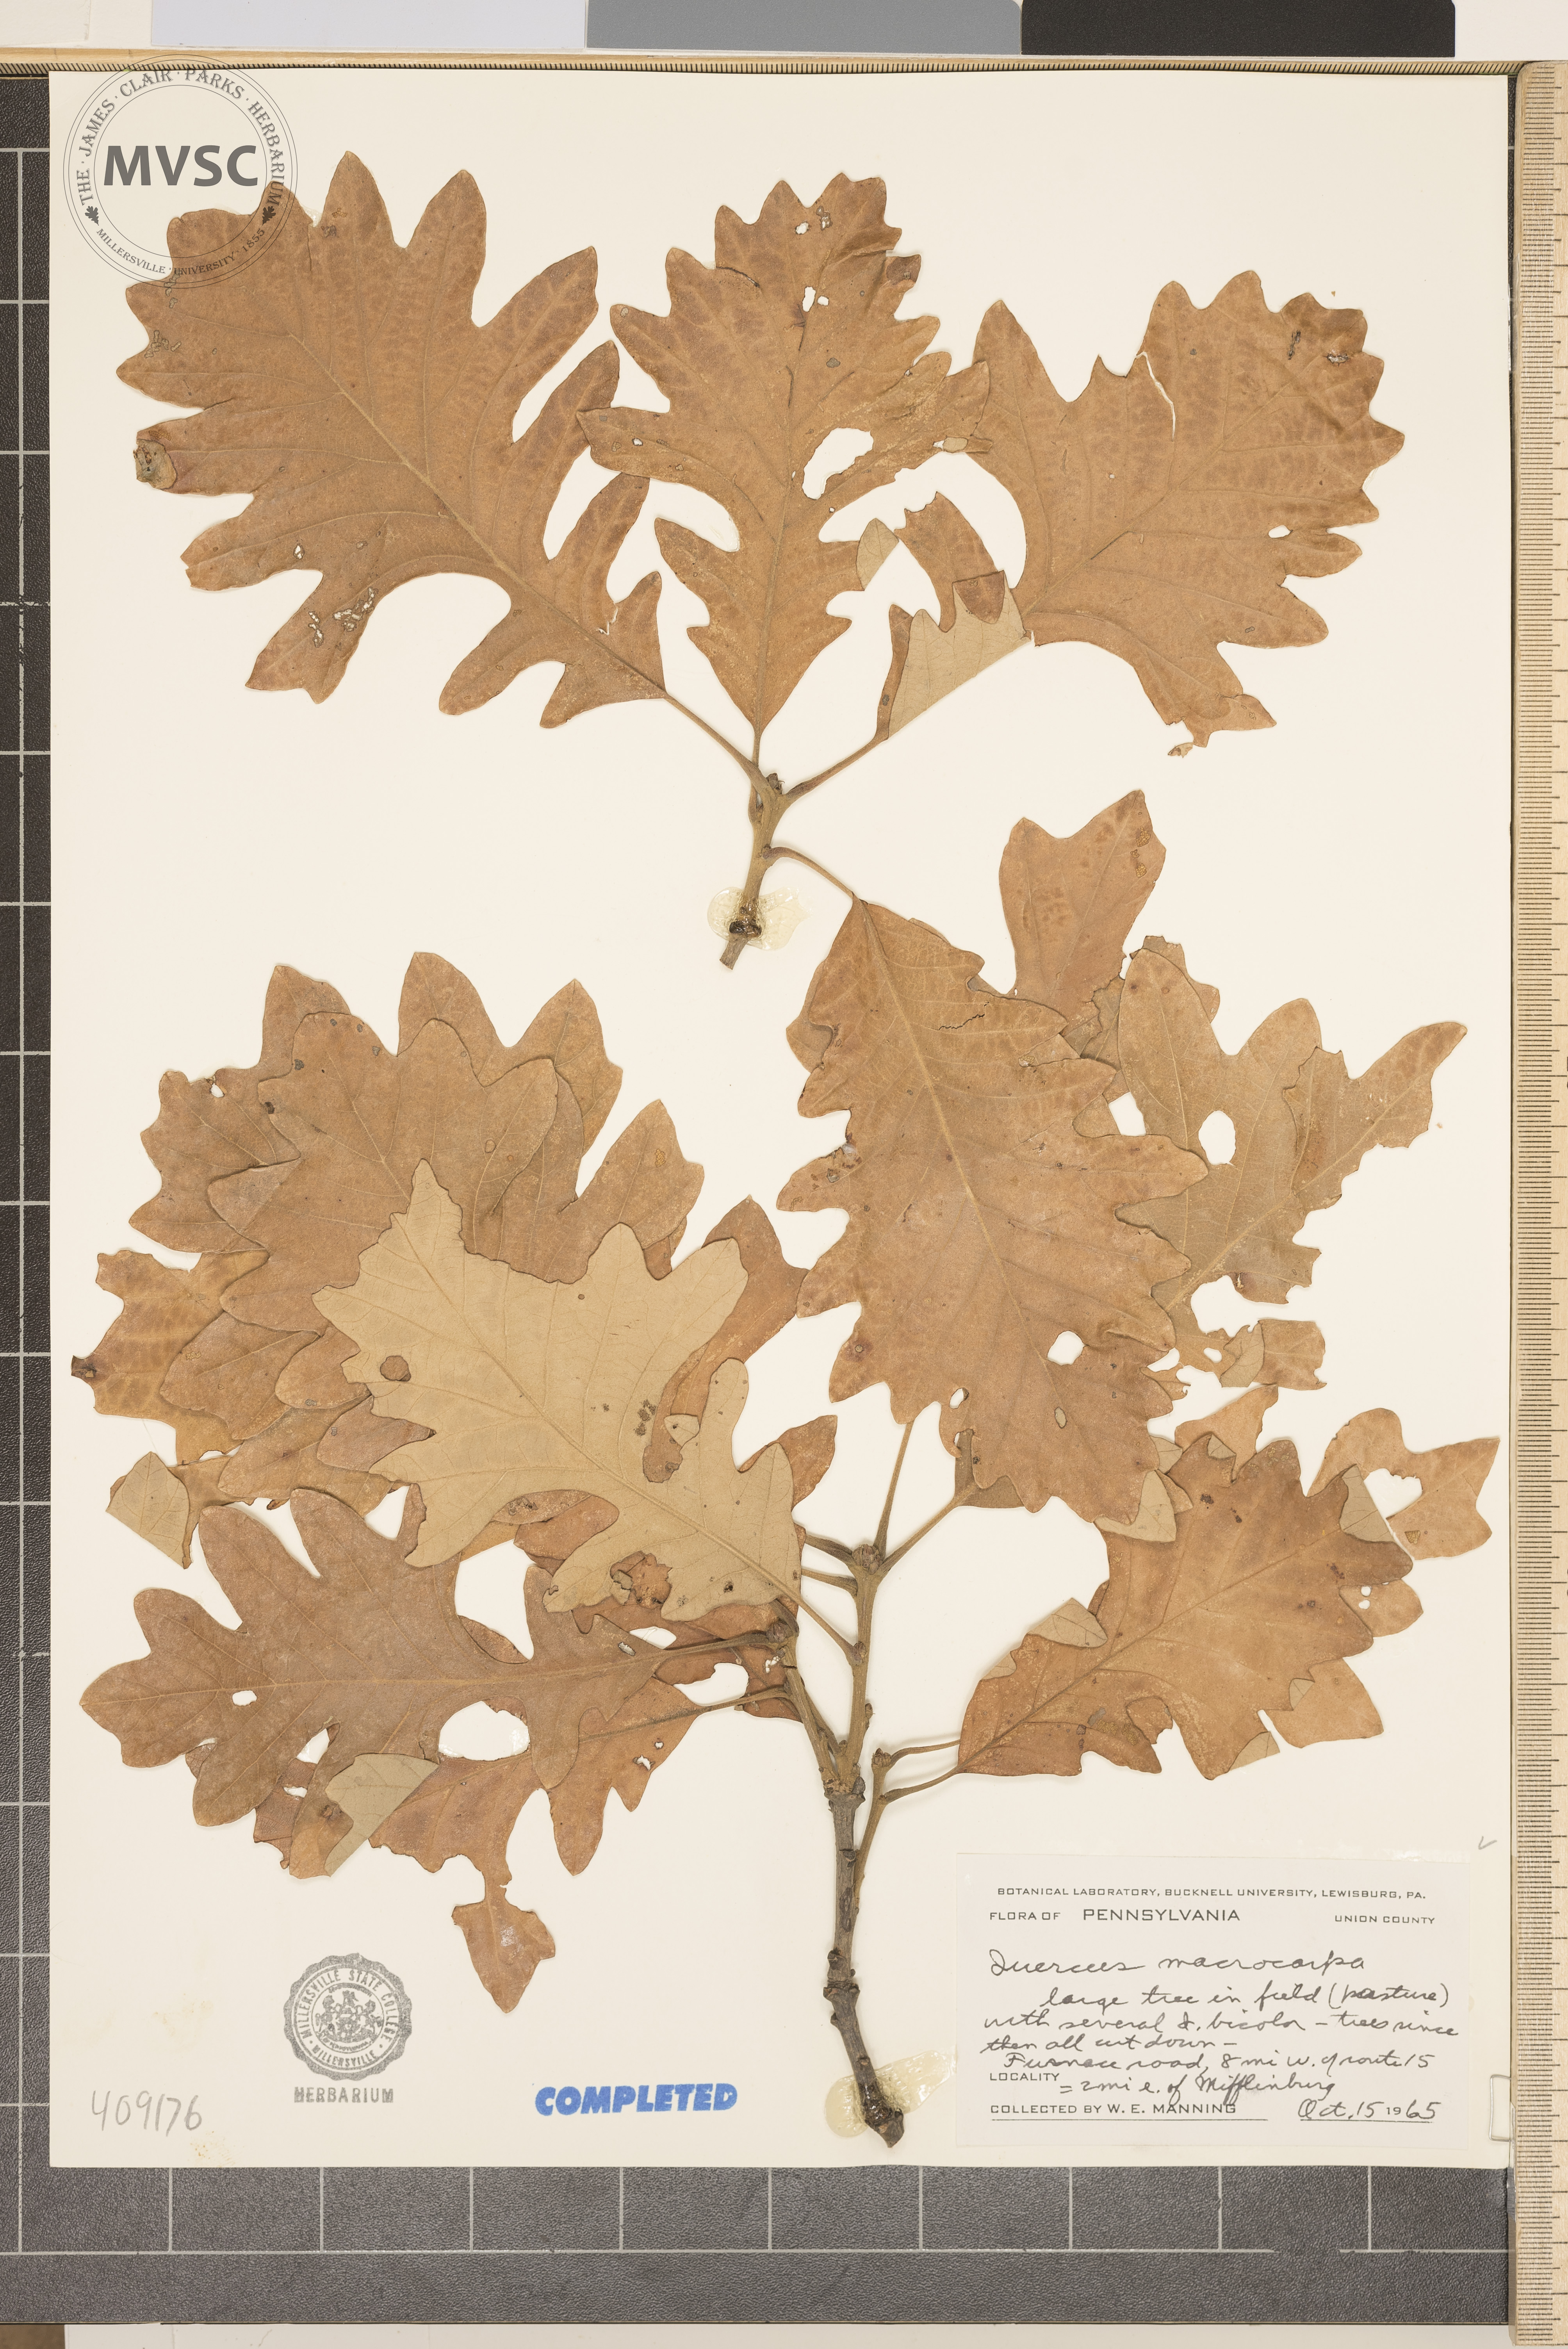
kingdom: Plantae
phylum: Tracheophyta
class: Magnoliopsida
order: Fagales
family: Fagaceae
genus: Quercus
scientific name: Quercus macrocarpa
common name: Bur oak
